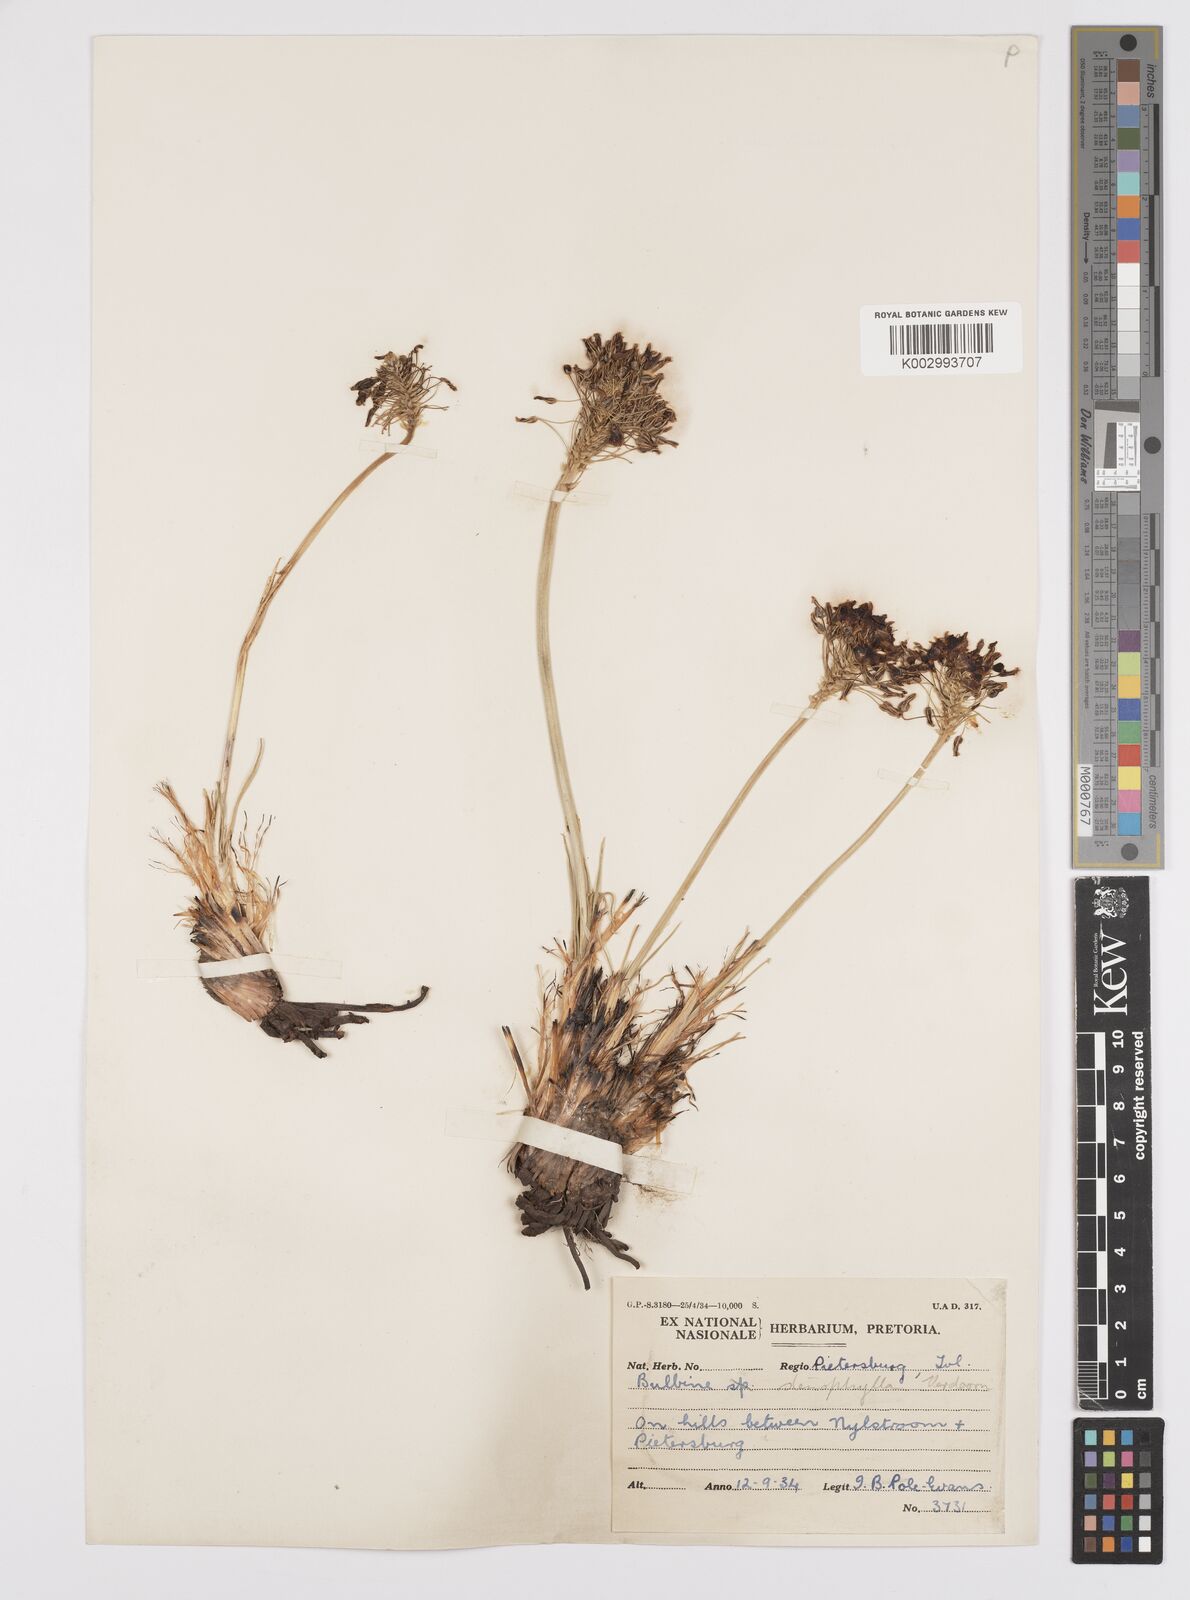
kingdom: Plantae
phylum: Tracheophyta
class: Liliopsida
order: Asparagales
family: Asphodelaceae
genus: Bulbine
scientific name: Bulbine capitata
